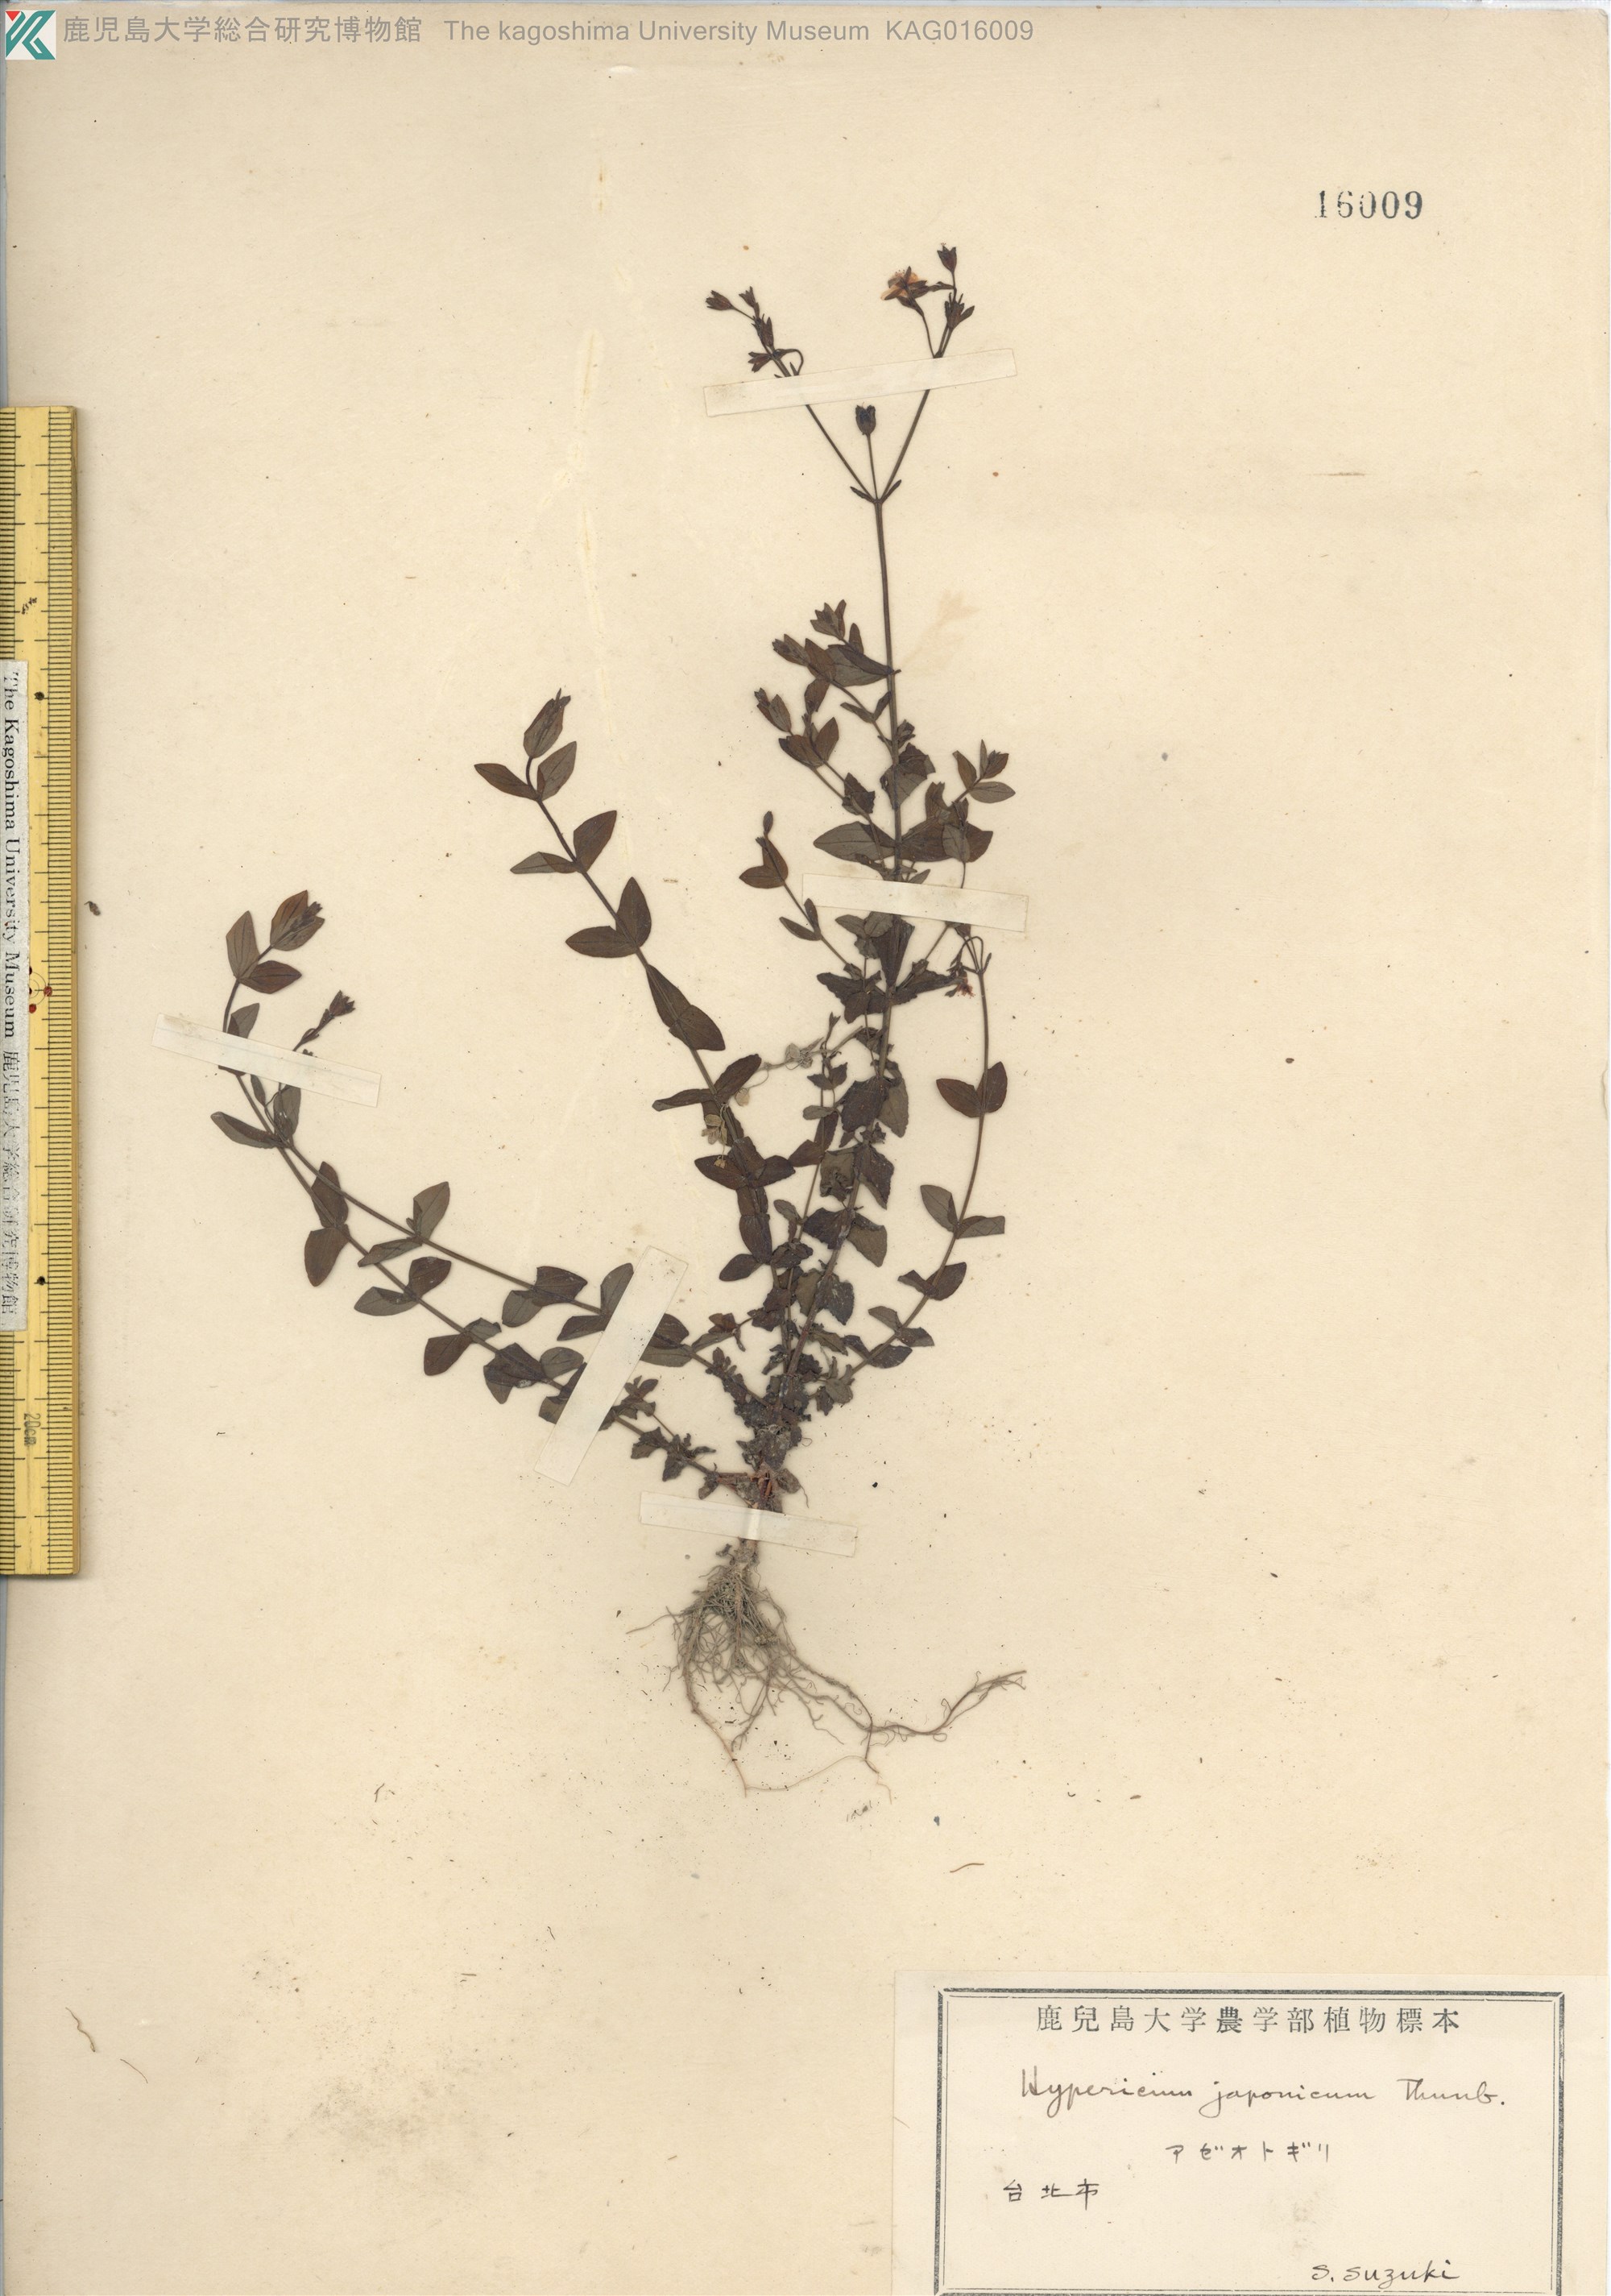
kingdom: Plantae
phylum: Tracheophyta
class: Magnoliopsida
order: Malpighiales
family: Hypericaceae
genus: Hypericum
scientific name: Hypericum japonicum
